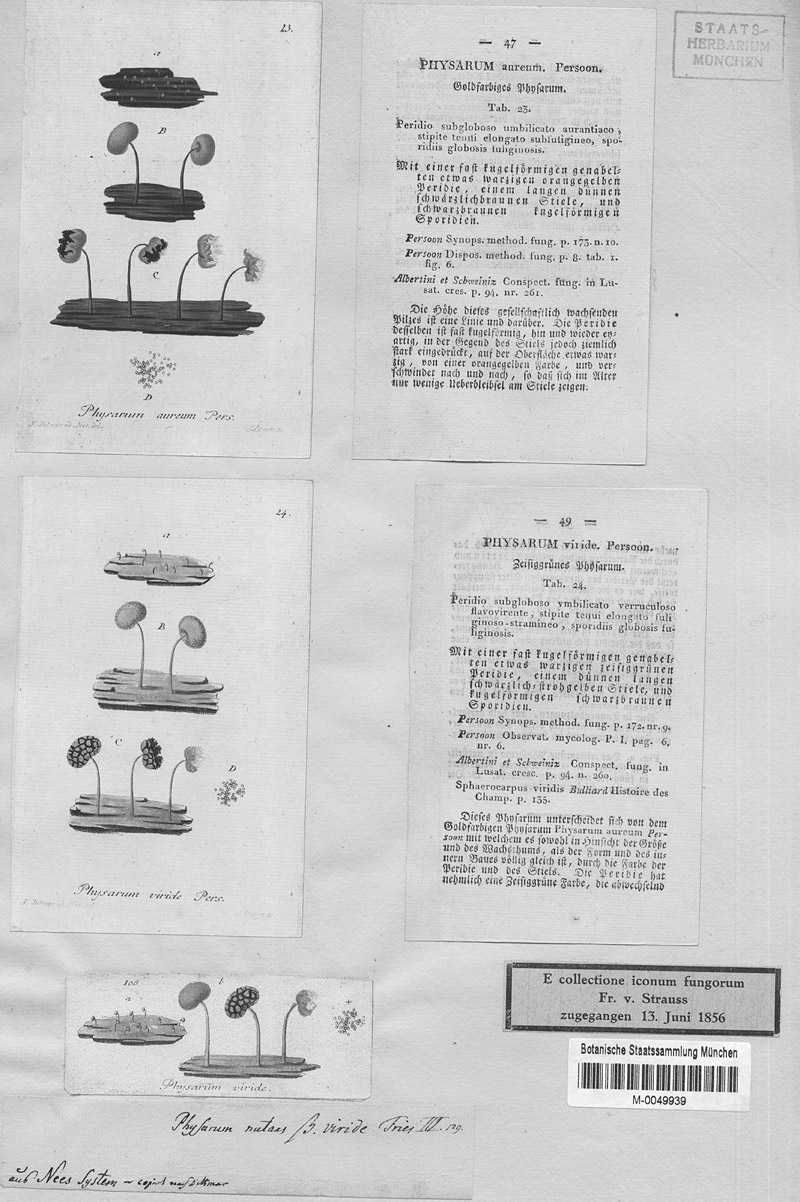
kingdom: Protozoa
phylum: Mycetozoa
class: Myxomycetes
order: Physarales
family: Physaraceae
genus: Physarum
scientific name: Physarum viride
